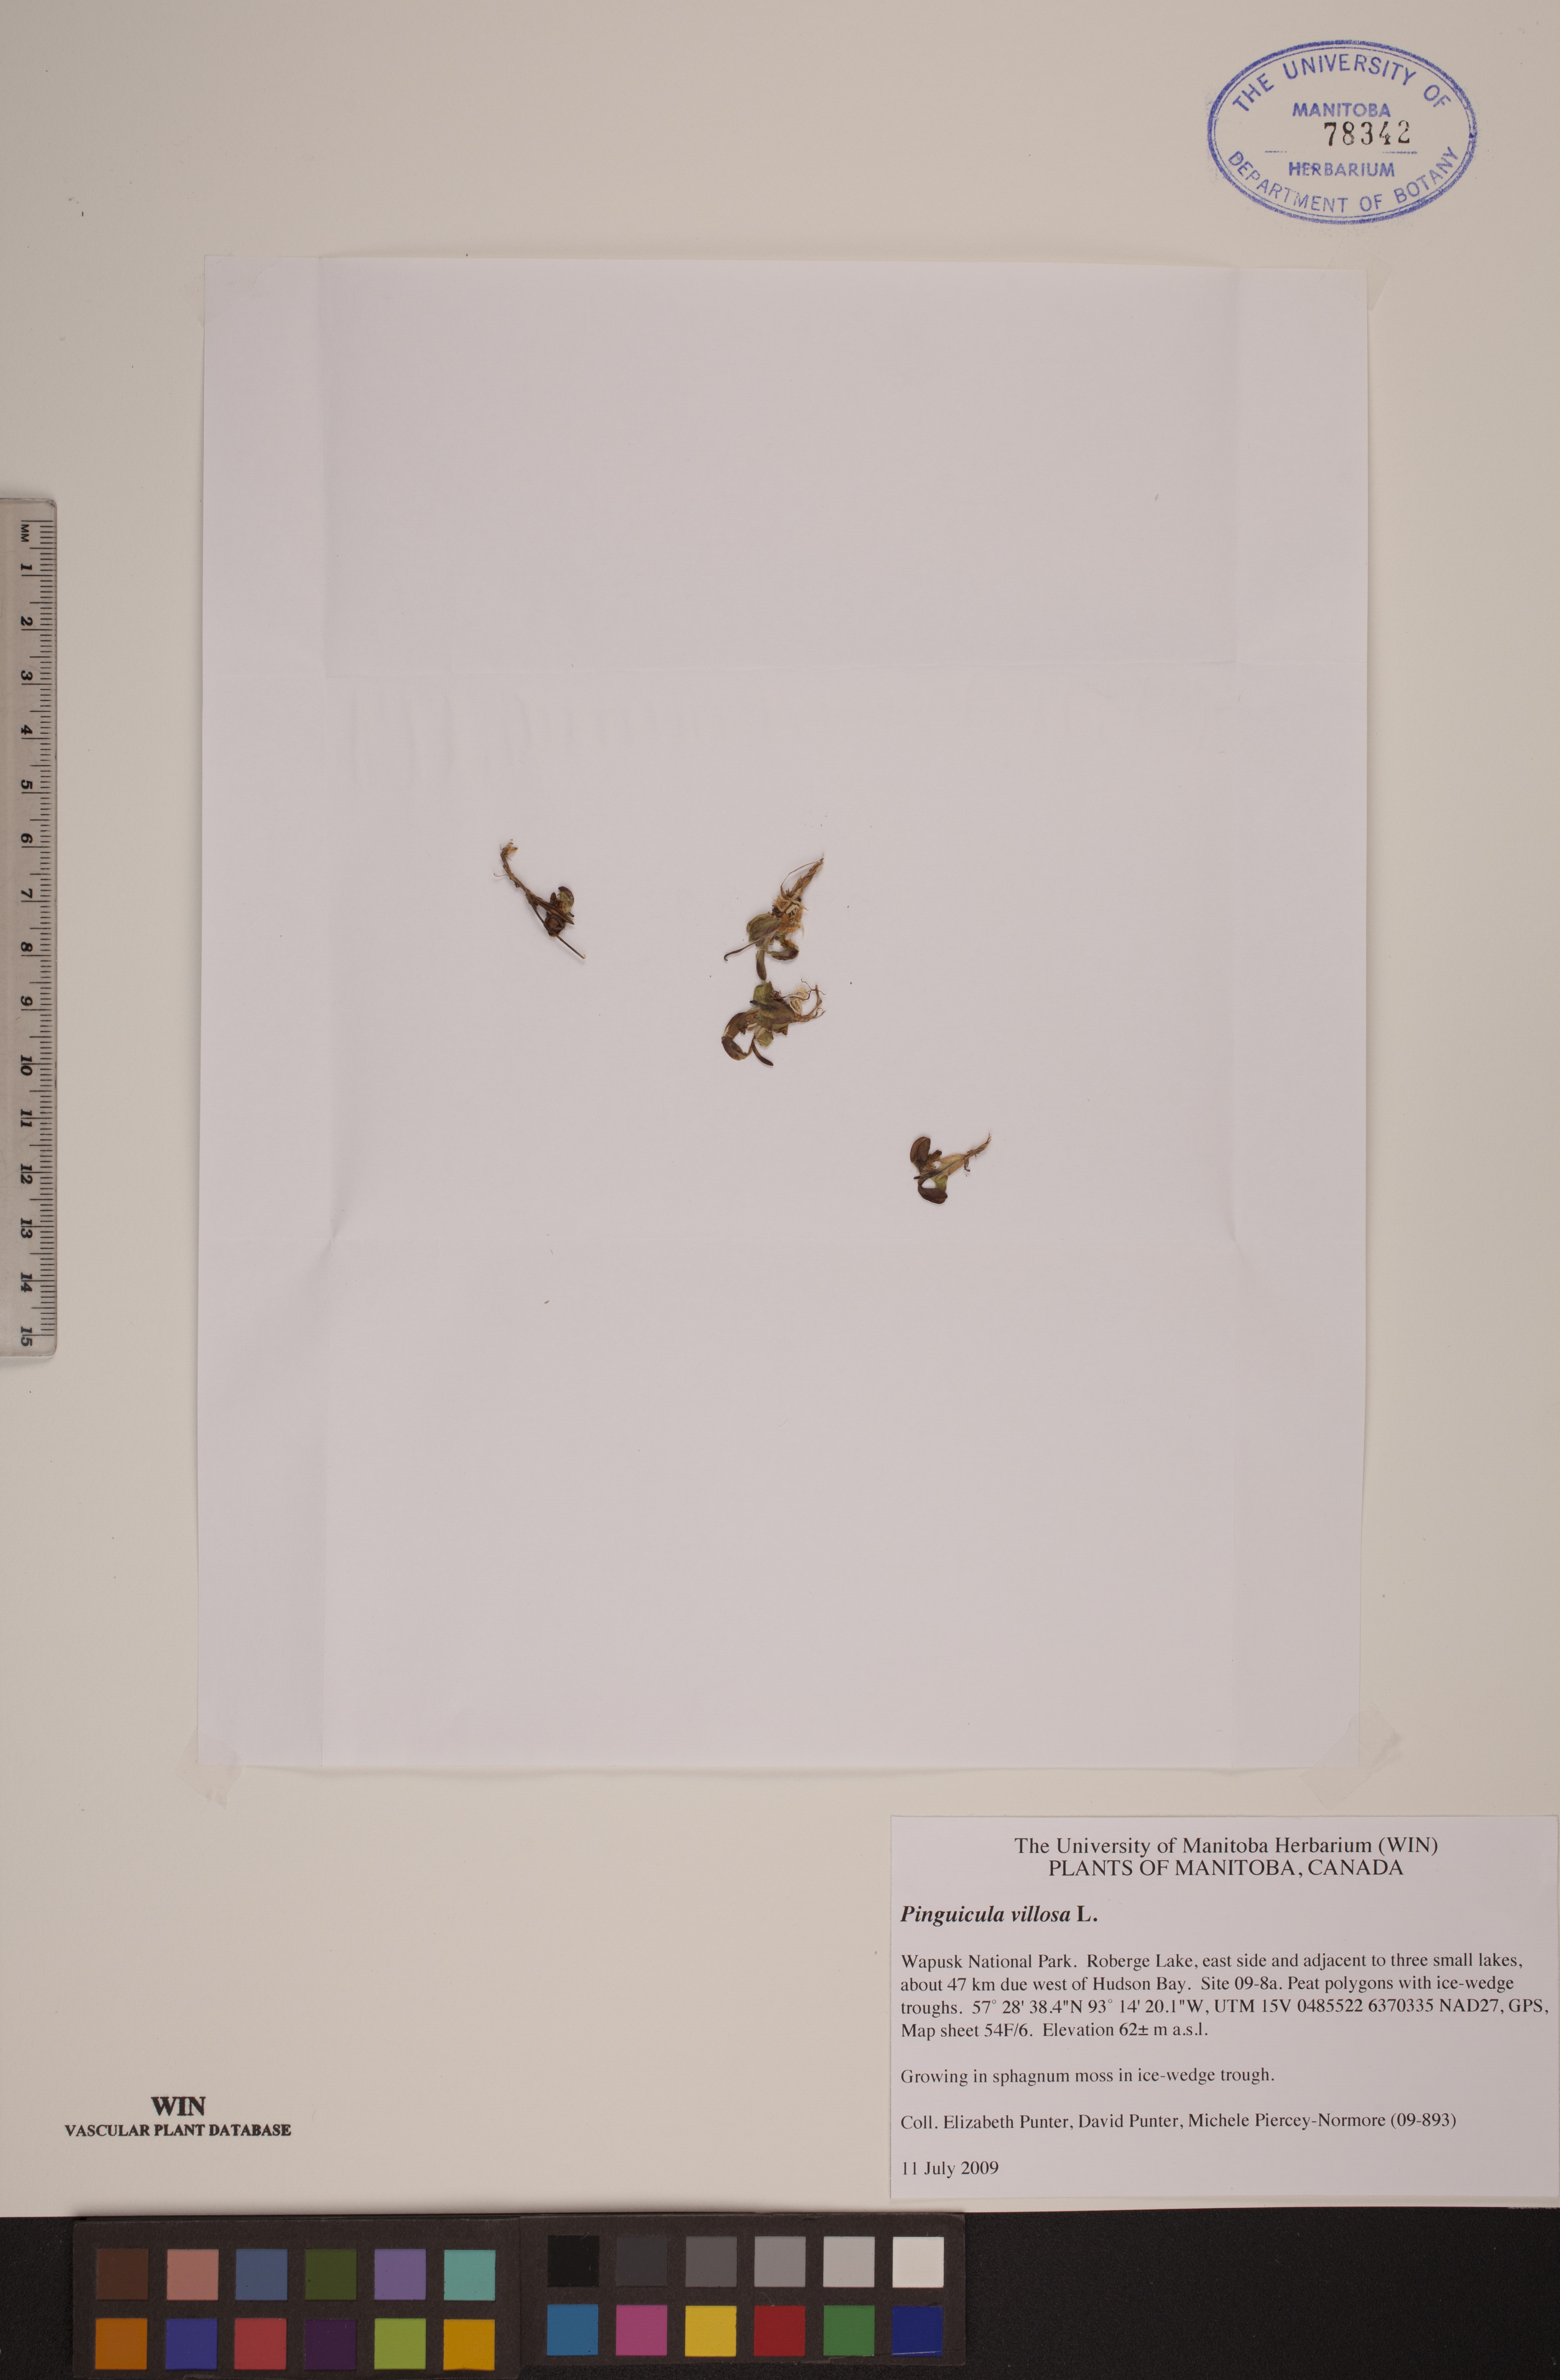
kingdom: Plantae
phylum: Tracheophyta
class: Magnoliopsida
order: Lamiales
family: Lentibulariaceae
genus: Pinguicula
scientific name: Pinguicula villosa
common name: Hairy butterwort
